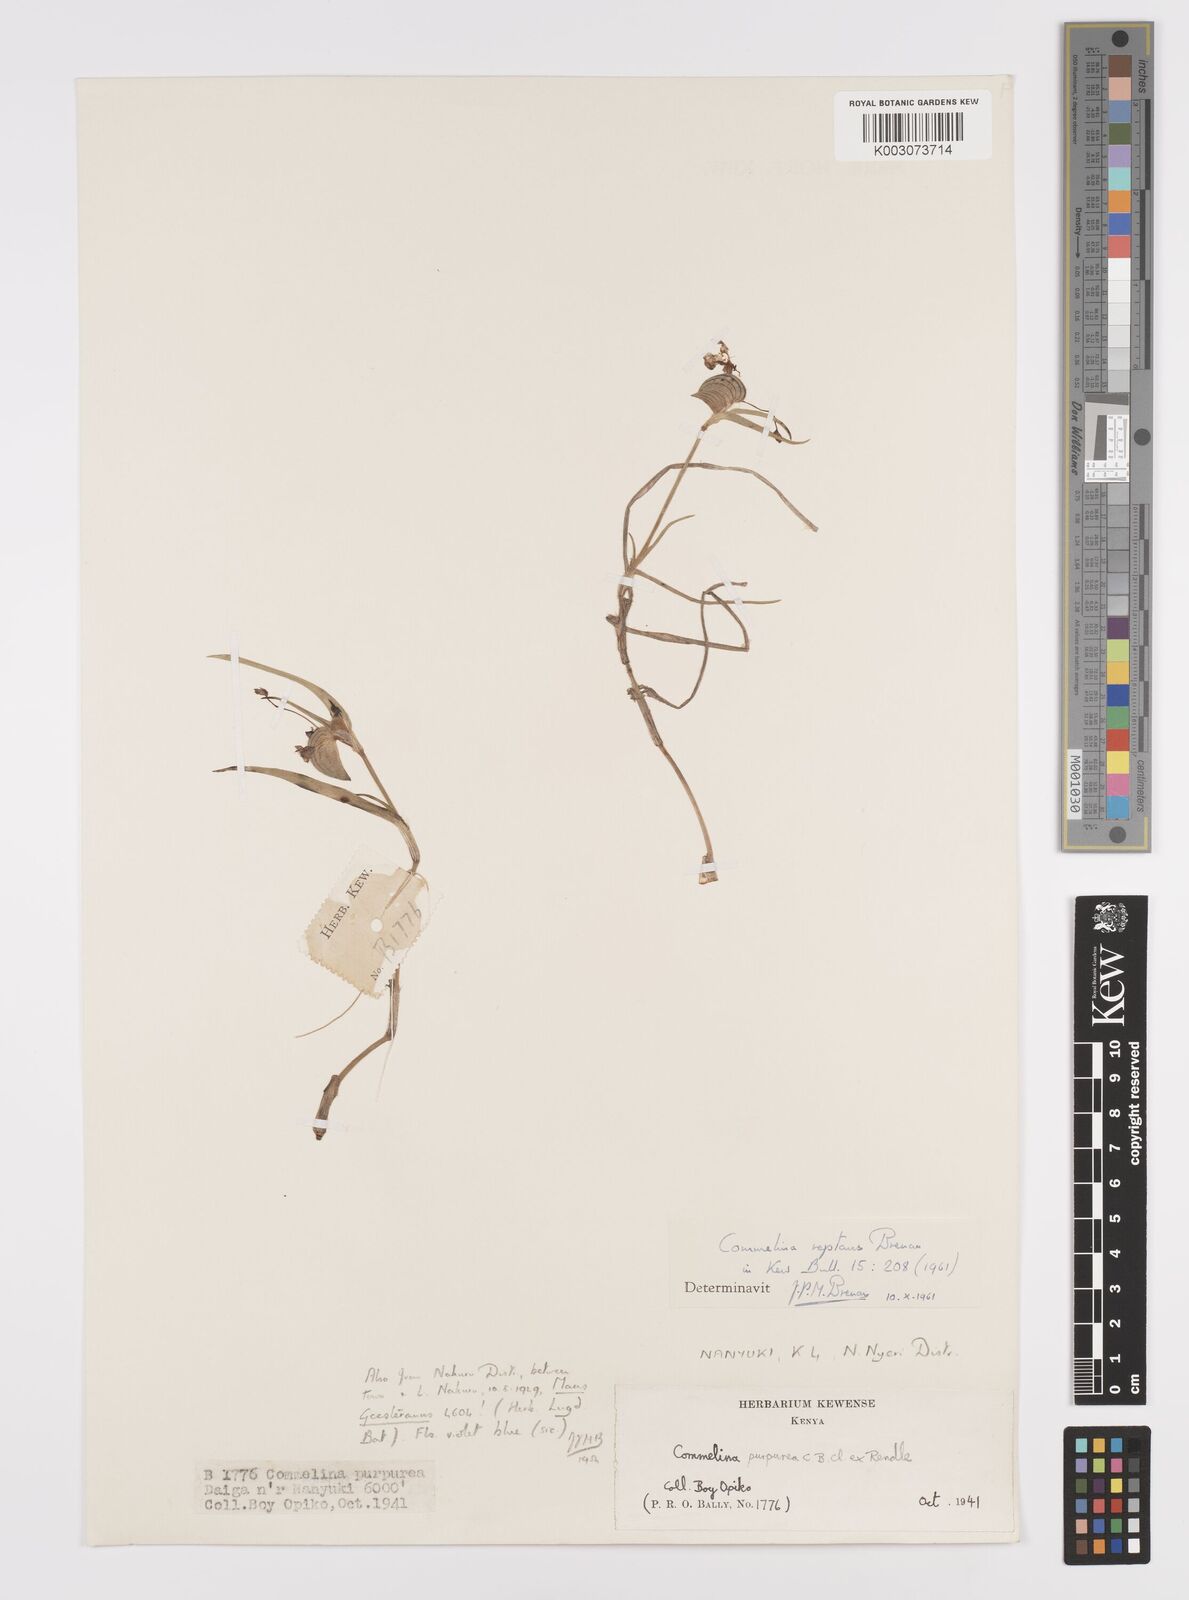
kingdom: Plantae
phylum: Tracheophyta
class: Liliopsida
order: Commelinales
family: Commelinaceae
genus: Commelina
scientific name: Commelina reptans
